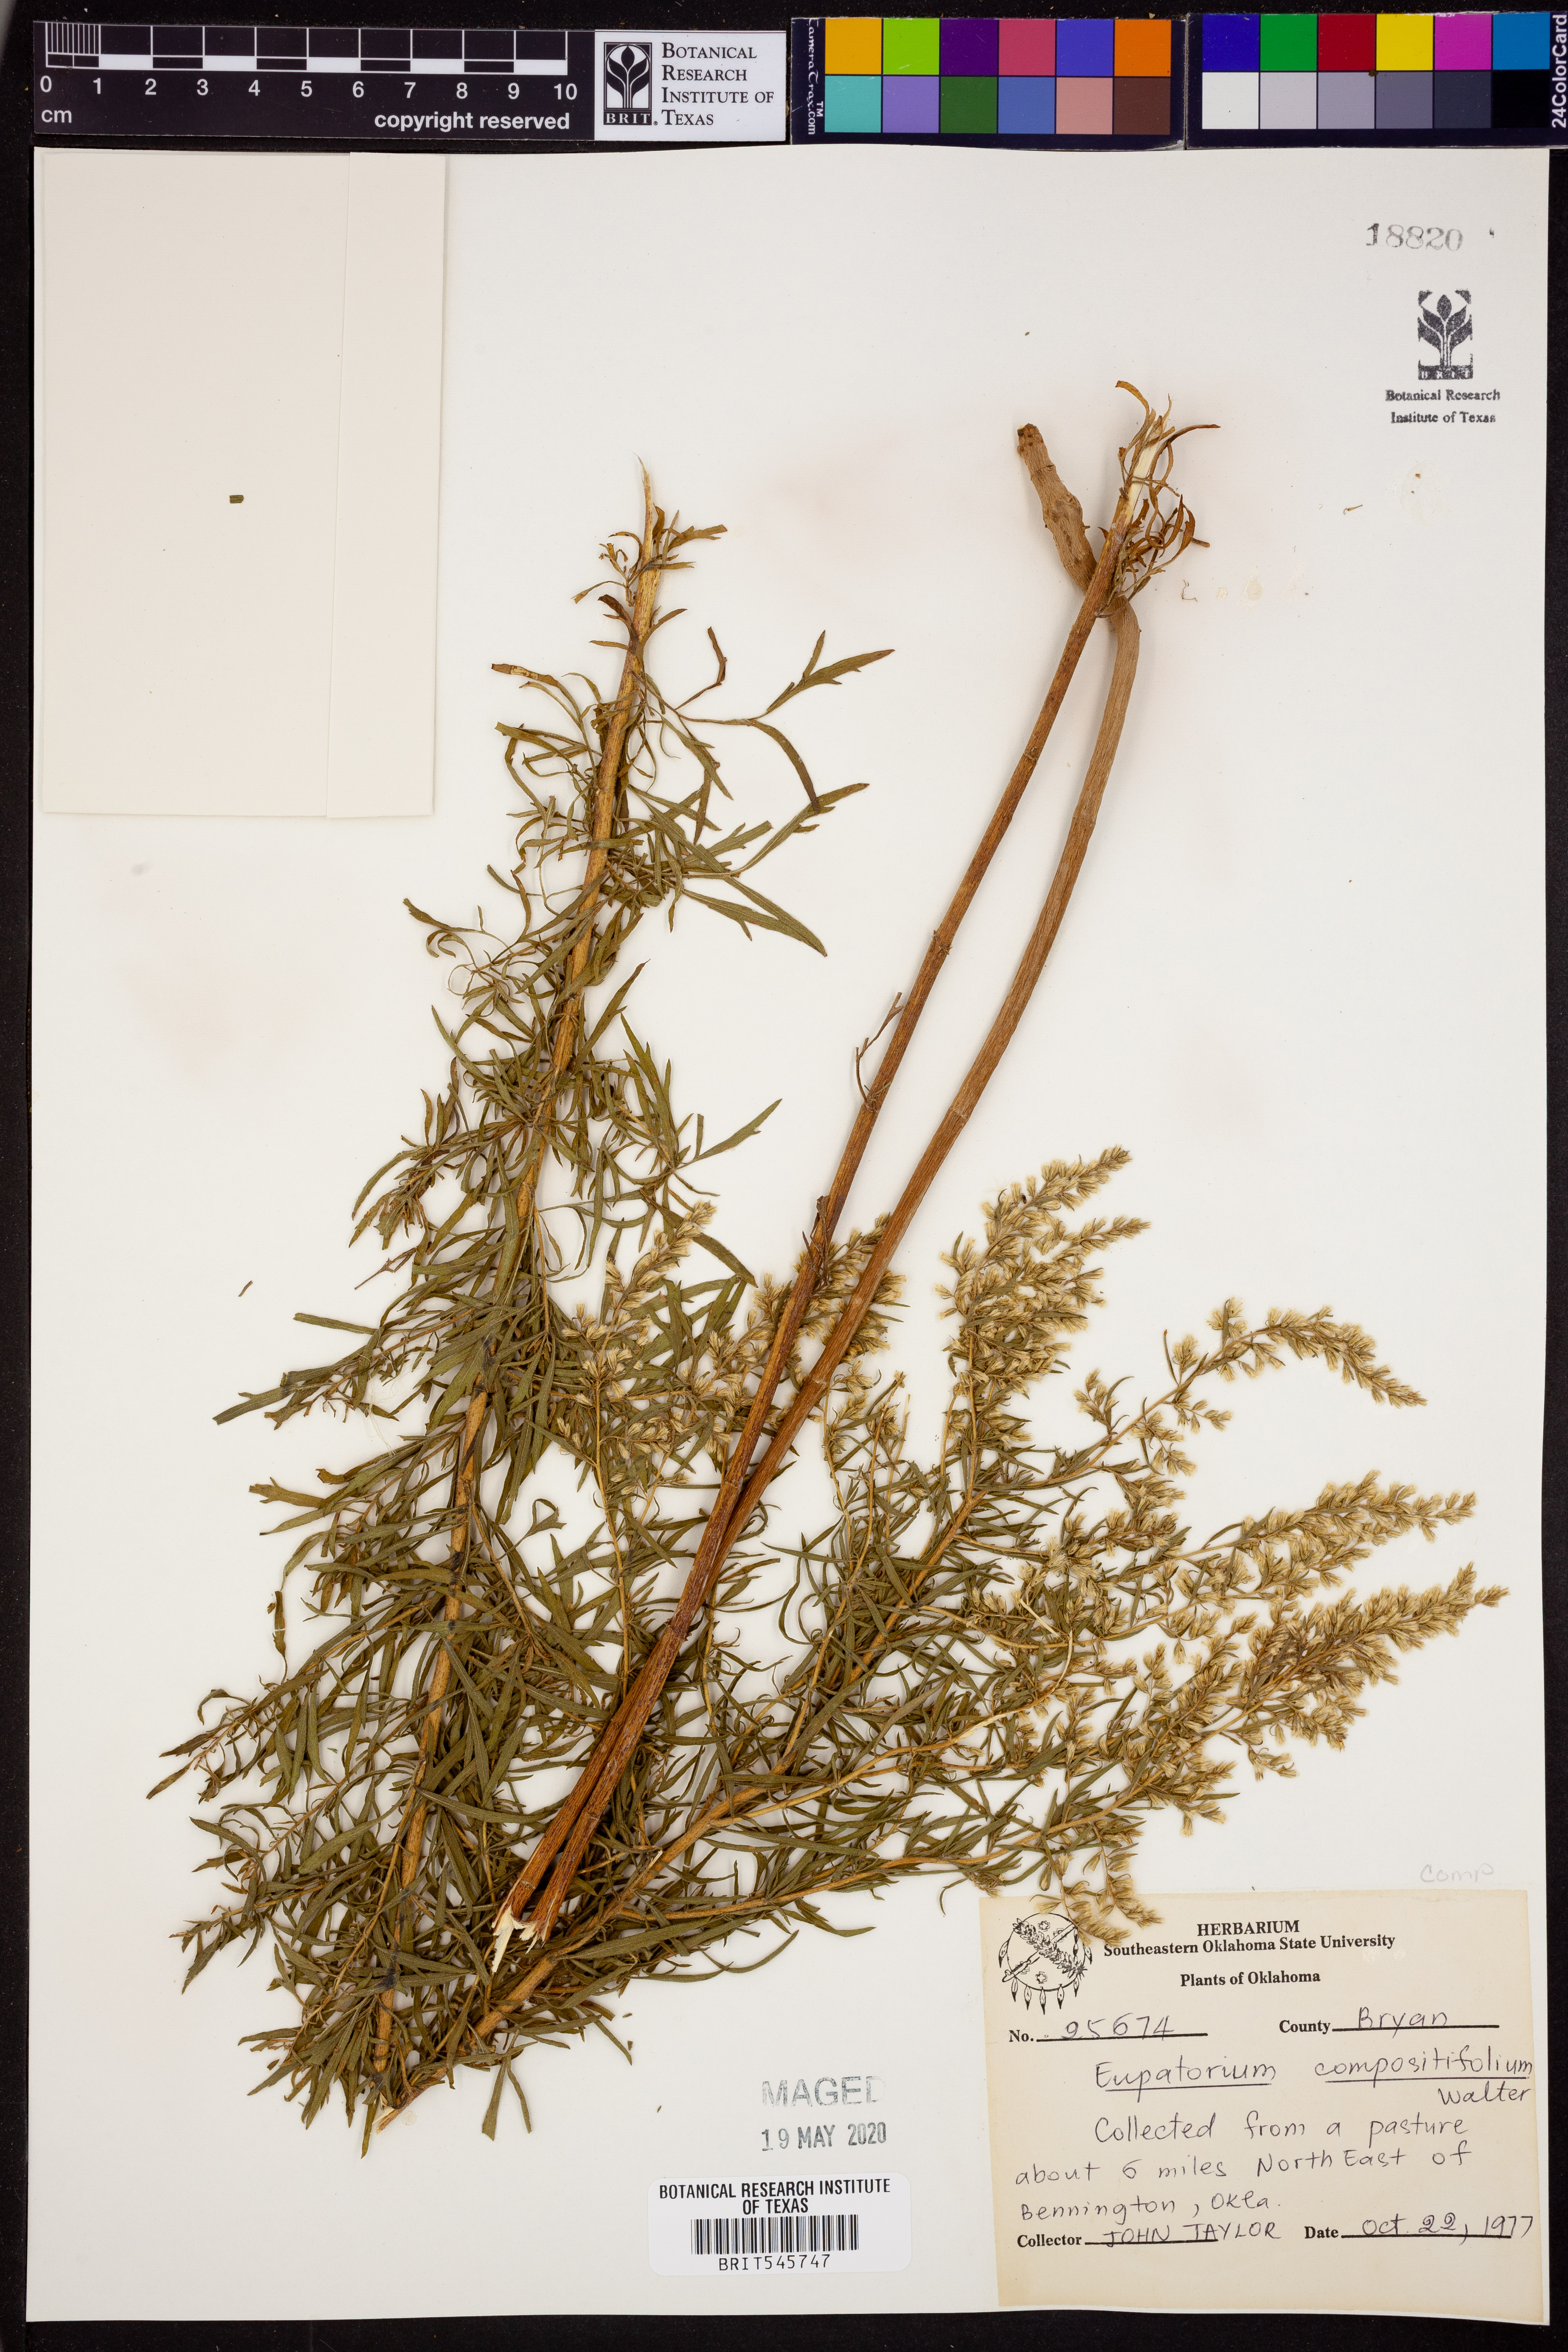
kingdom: Plantae
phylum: Tracheophyta
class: Magnoliopsida
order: Asterales
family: Asteraceae
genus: Eupatorium
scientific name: Eupatorium compositifolium
